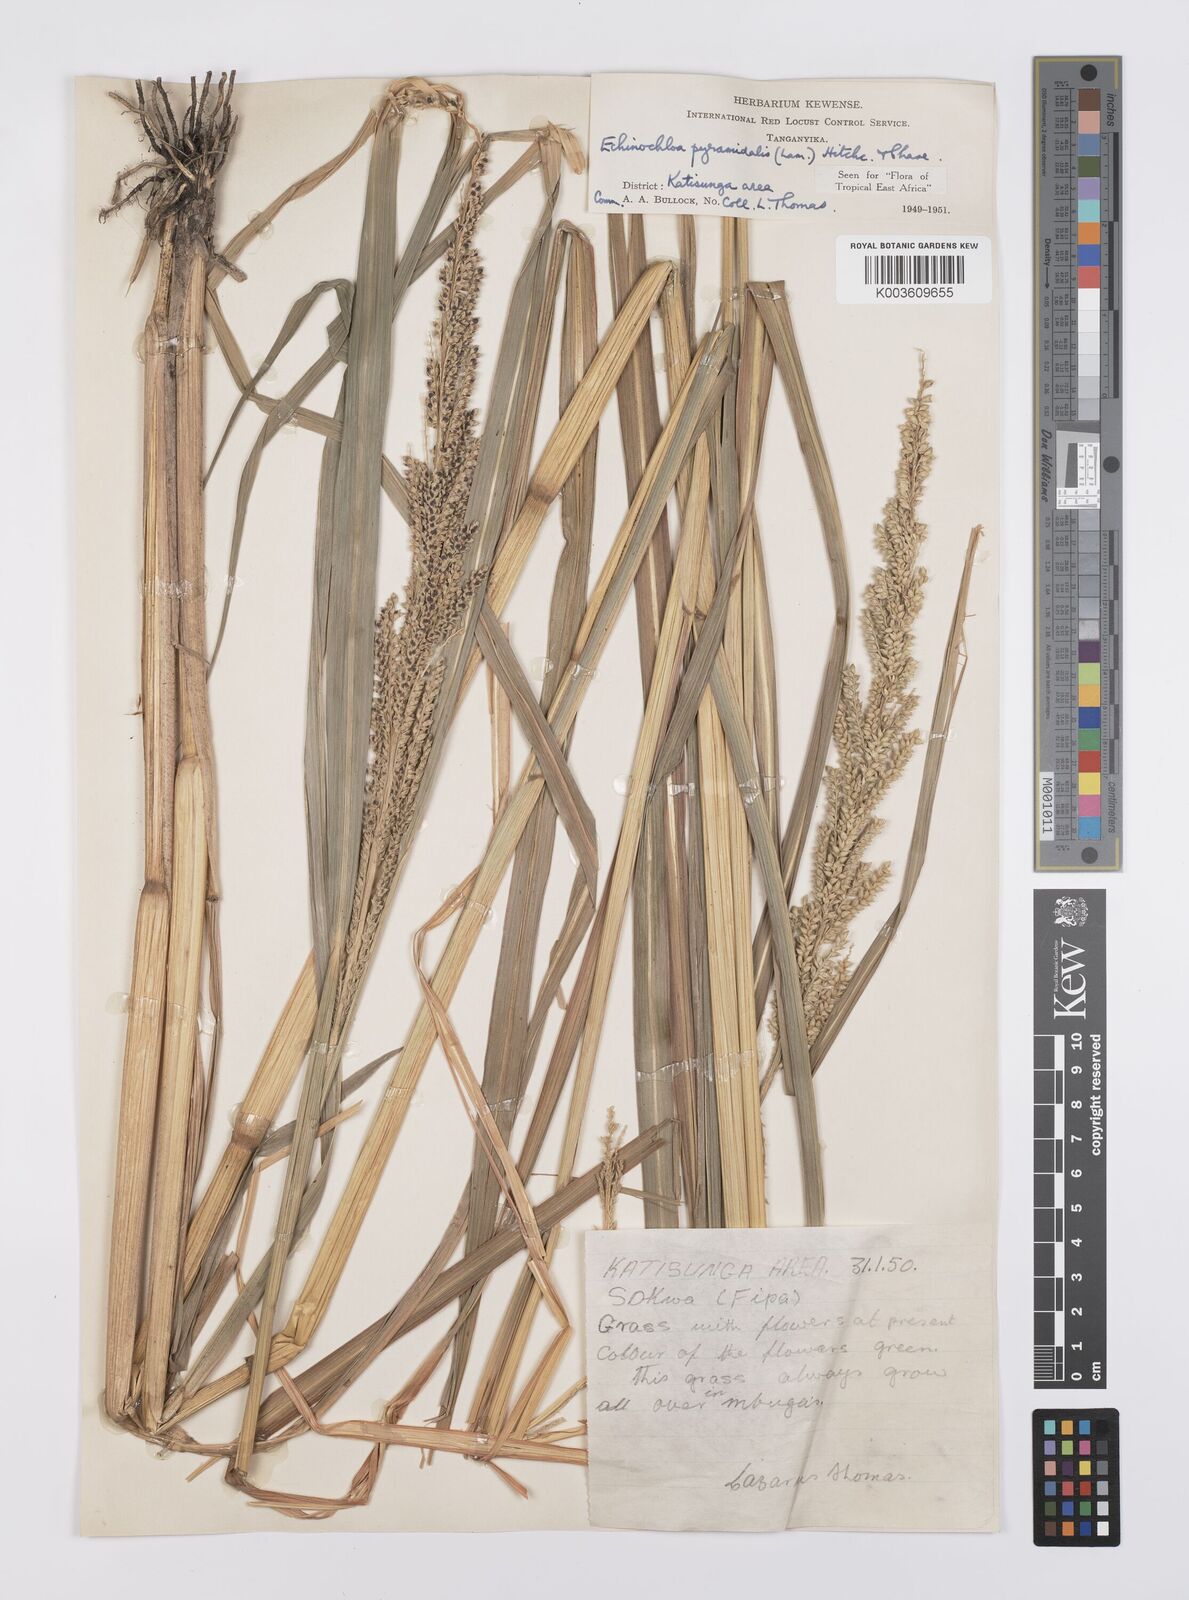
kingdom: Plantae
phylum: Tracheophyta
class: Liliopsida
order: Poales
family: Poaceae
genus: Echinochloa
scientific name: Echinochloa pyramidalis
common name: Antelope grass
